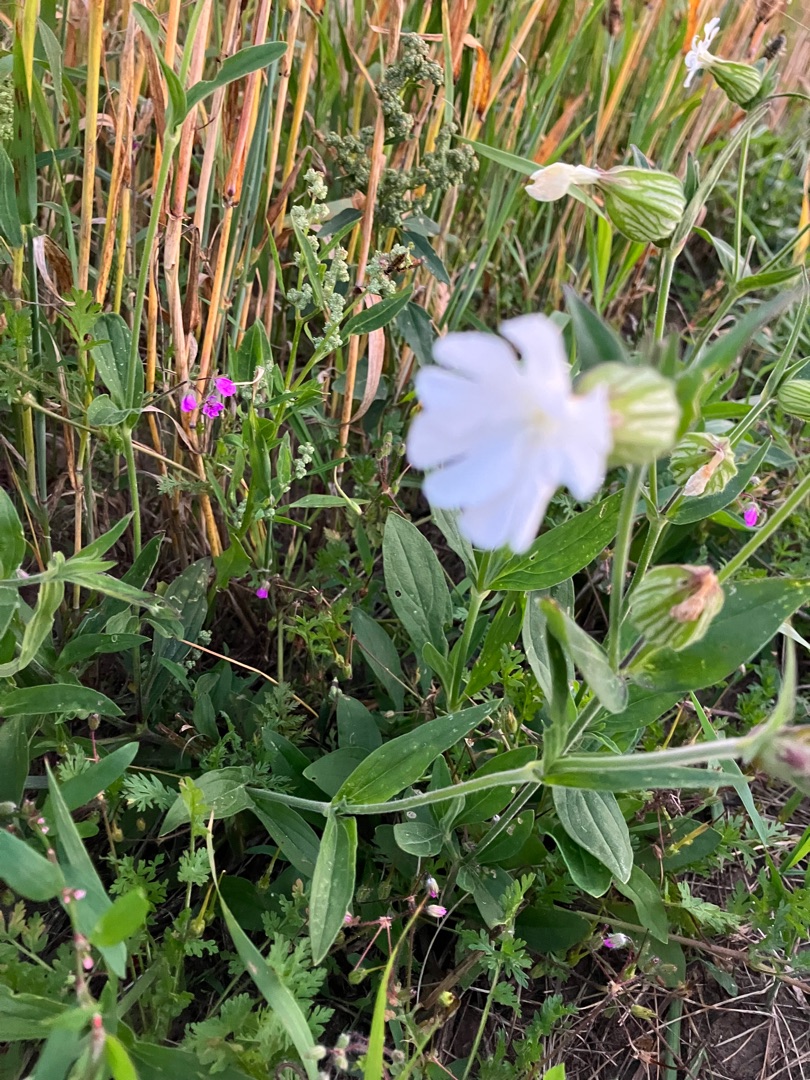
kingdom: Plantae
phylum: Tracheophyta
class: Magnoliopsida
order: Caryophyllales
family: Caryophyllaceae
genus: Silene
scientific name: Silene latifolia
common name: Aftenpragtstjerne
